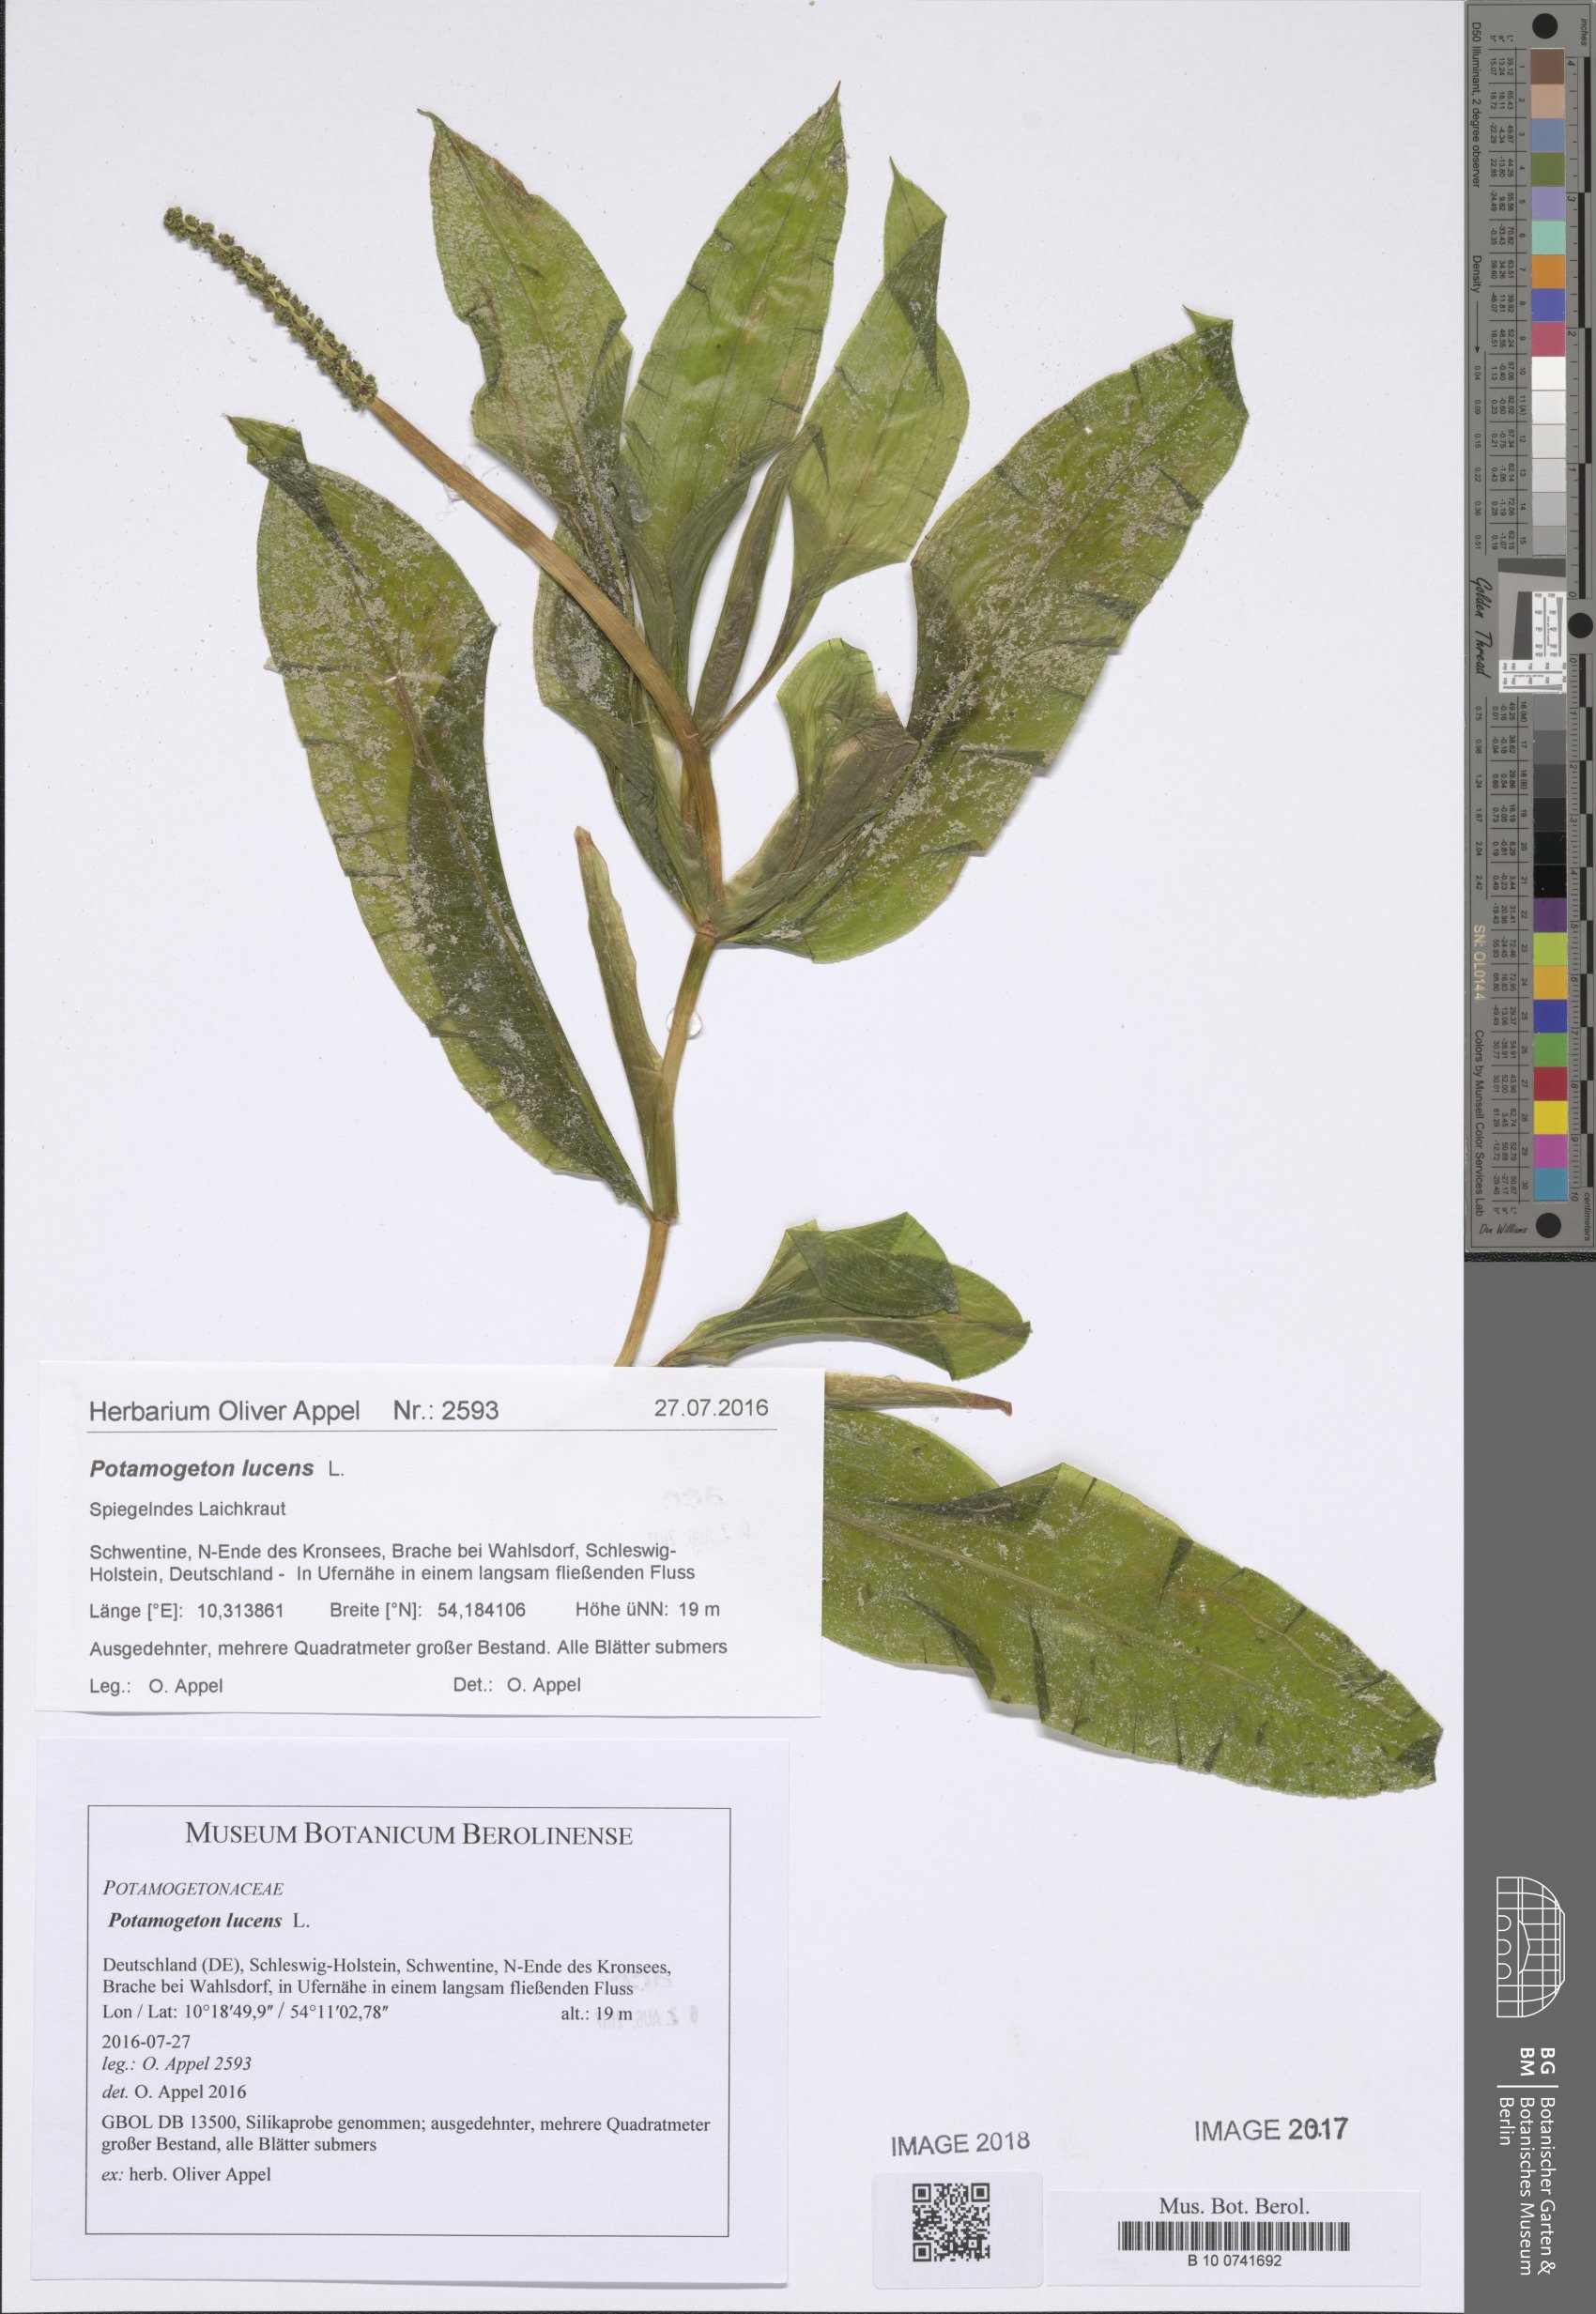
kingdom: Plantae
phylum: Tracheophyta
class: Liliopsida
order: Alismatales
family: Potamogetonaceae
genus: Potamogeton
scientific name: Potamogeton lucens
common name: Shining pondweed
